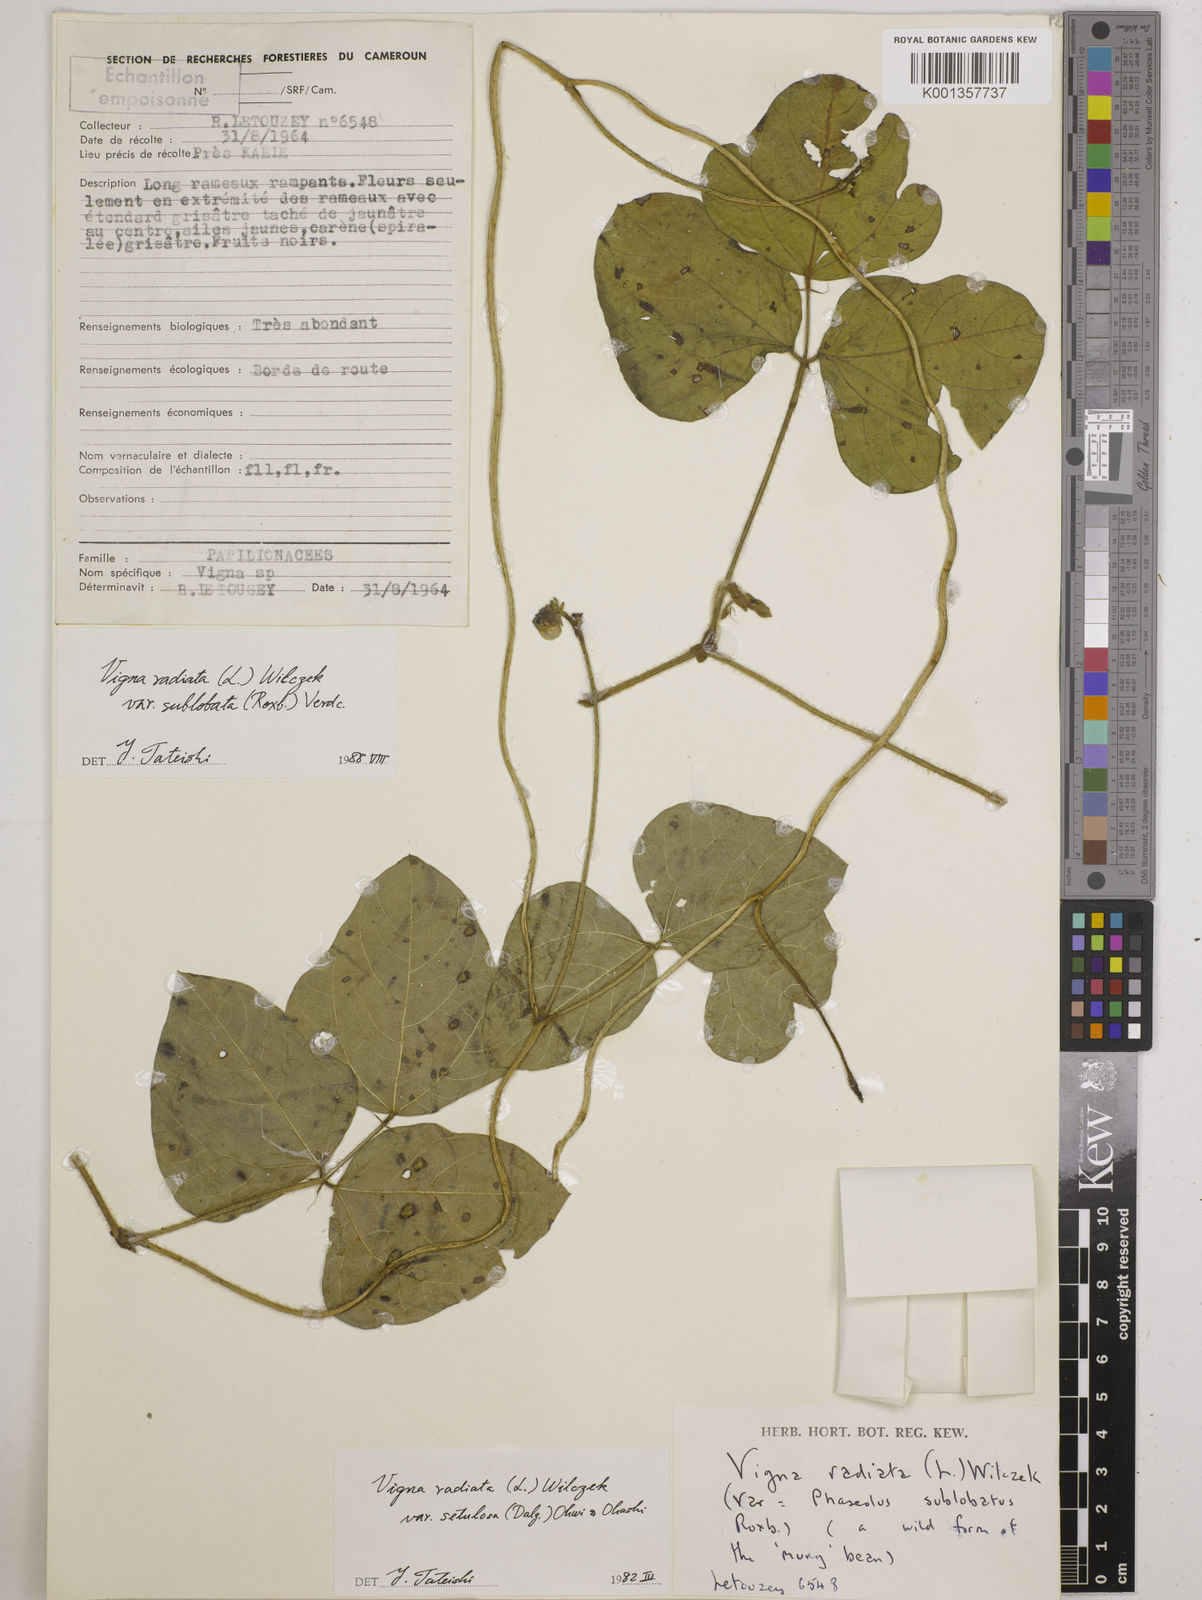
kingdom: Plantae
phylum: Tracheophyta
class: Magnoliopsida
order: Fabales
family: Fabaceae
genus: Vigna
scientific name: Vigna radiata
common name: Mung-bean
